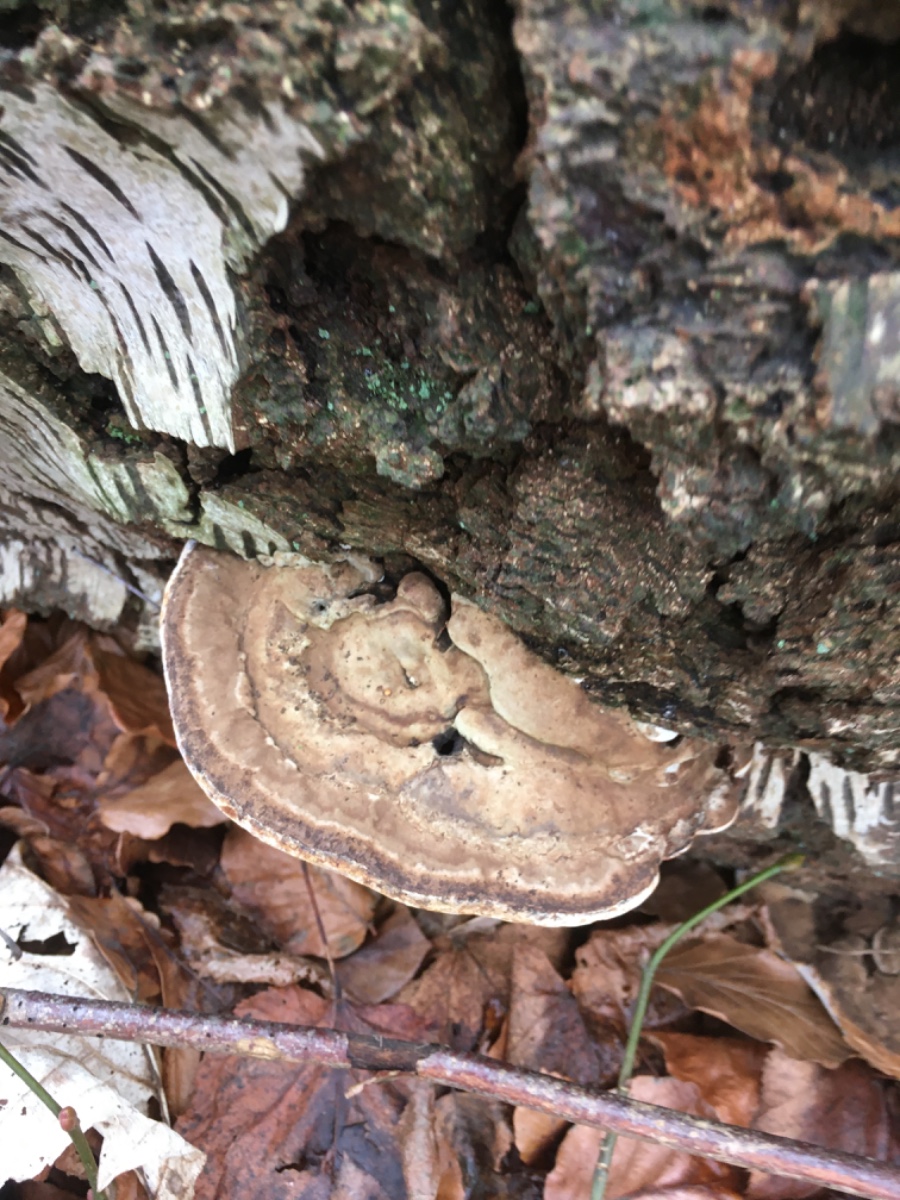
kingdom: Fungi
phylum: Basidiomycota
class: Agaricomycetes
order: Polyporales
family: Polyporaceae
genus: Ganoderma
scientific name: Ganoderma applanatum
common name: flad lakporesvamp
